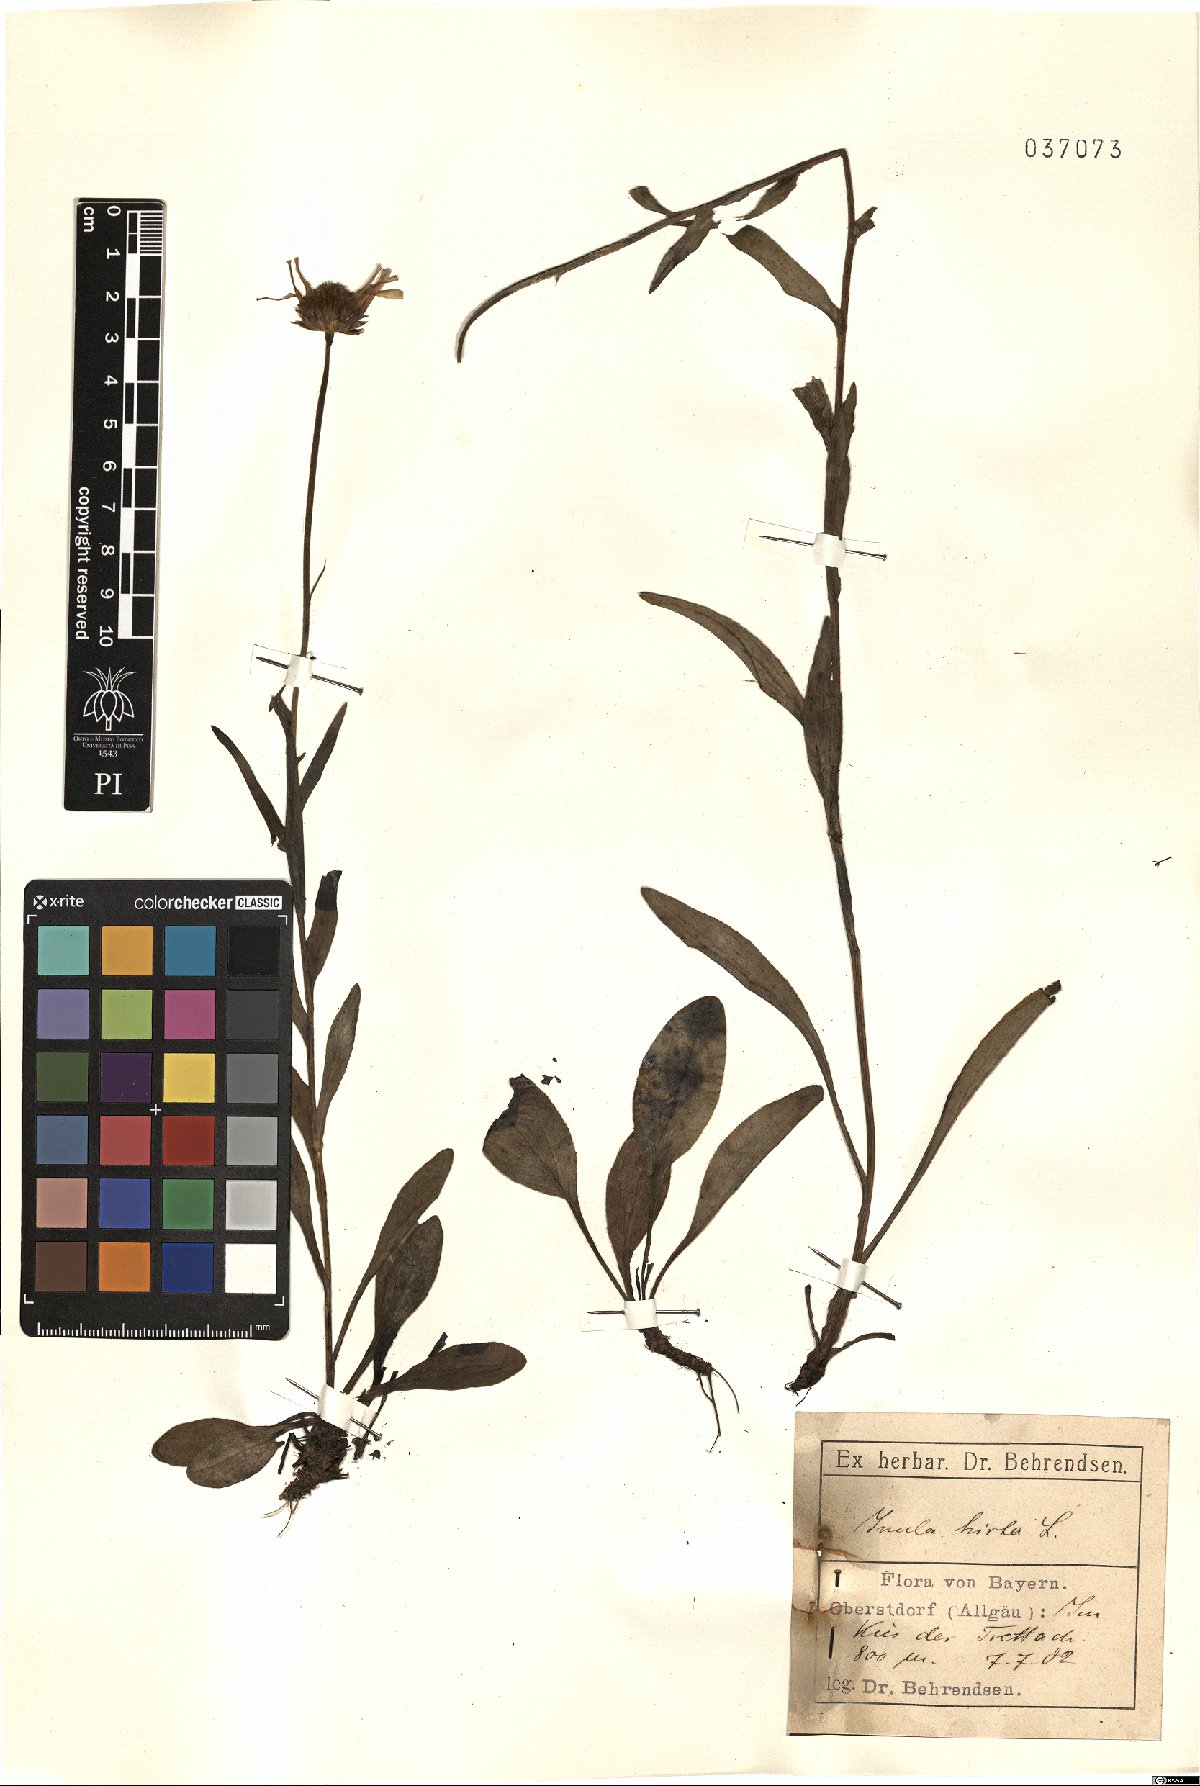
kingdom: Plantae
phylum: Tracheophyta
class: Magnoliopsida
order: Asterales
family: Asteraceae
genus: Pentanema
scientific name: Pentanema hirtum
